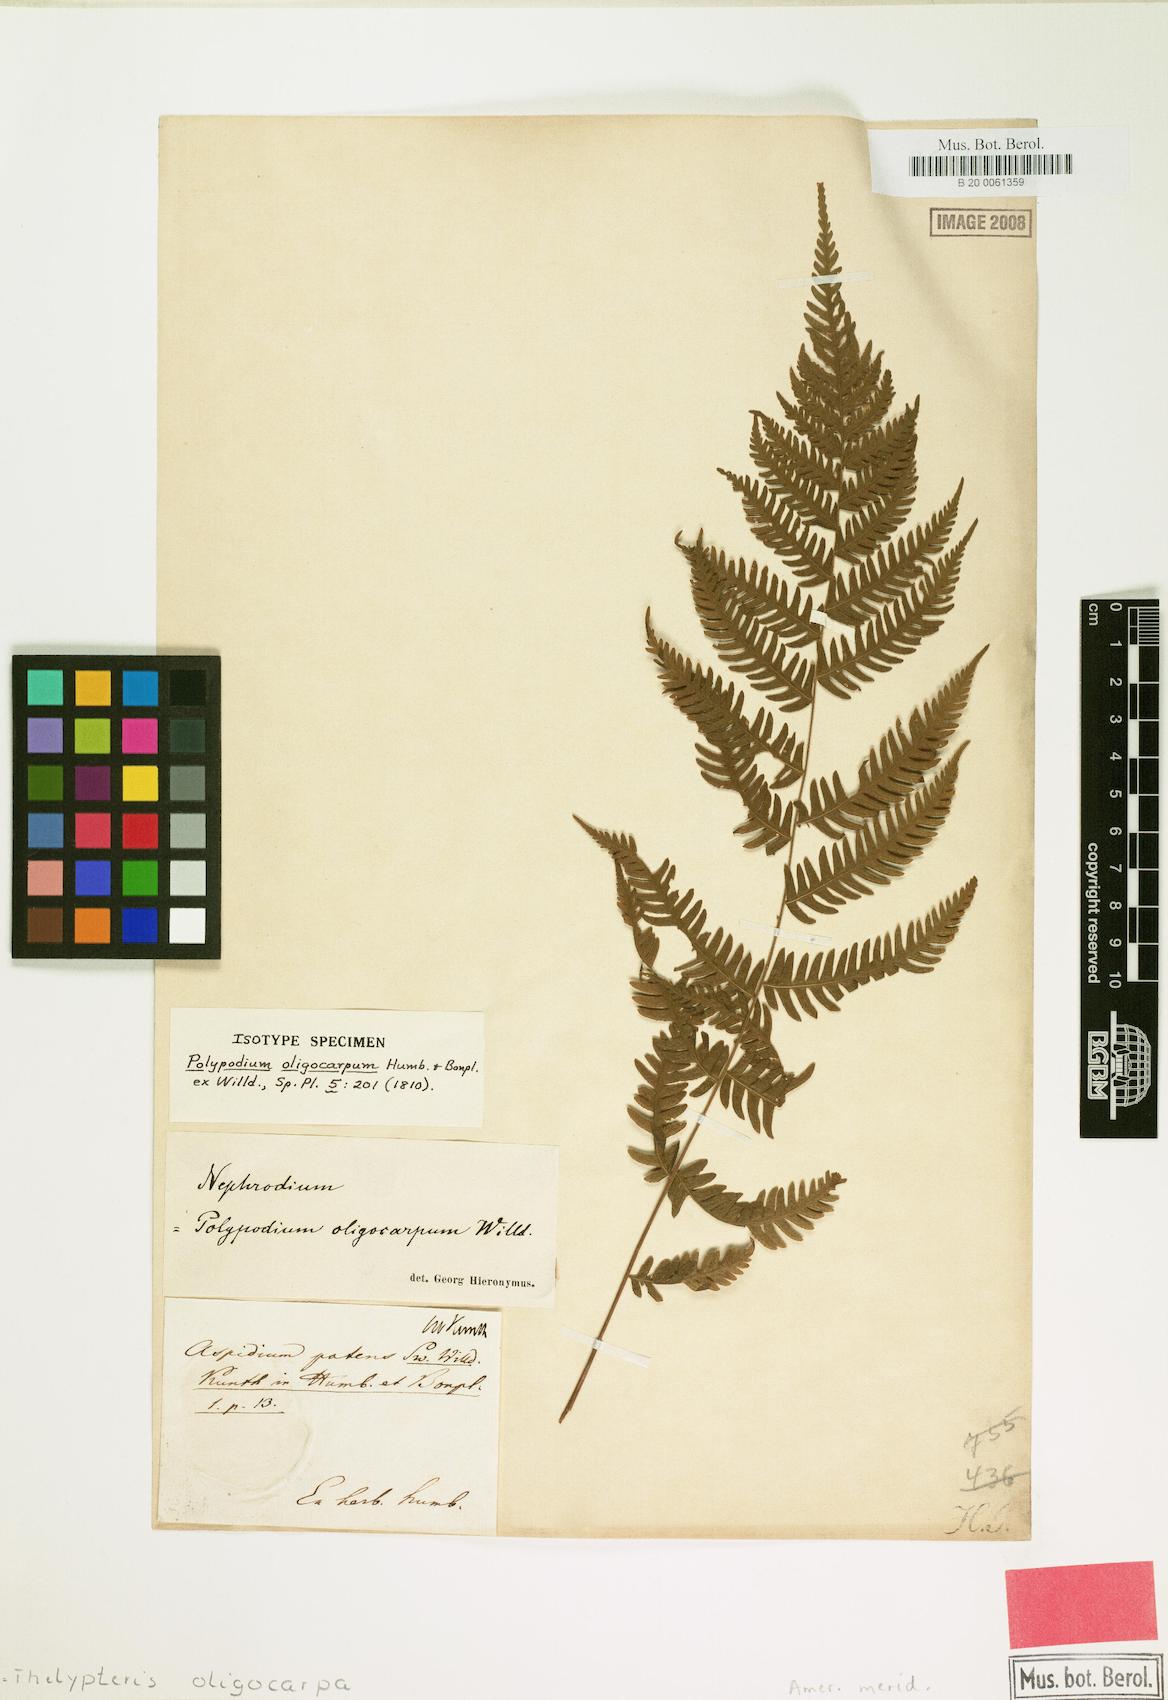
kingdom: Plantae
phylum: Tracheophyta
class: Polypodiopsida
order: Polypodiales
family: Thelypteridaceae
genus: Amauropelta
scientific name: Amauropelta oligocarpa
